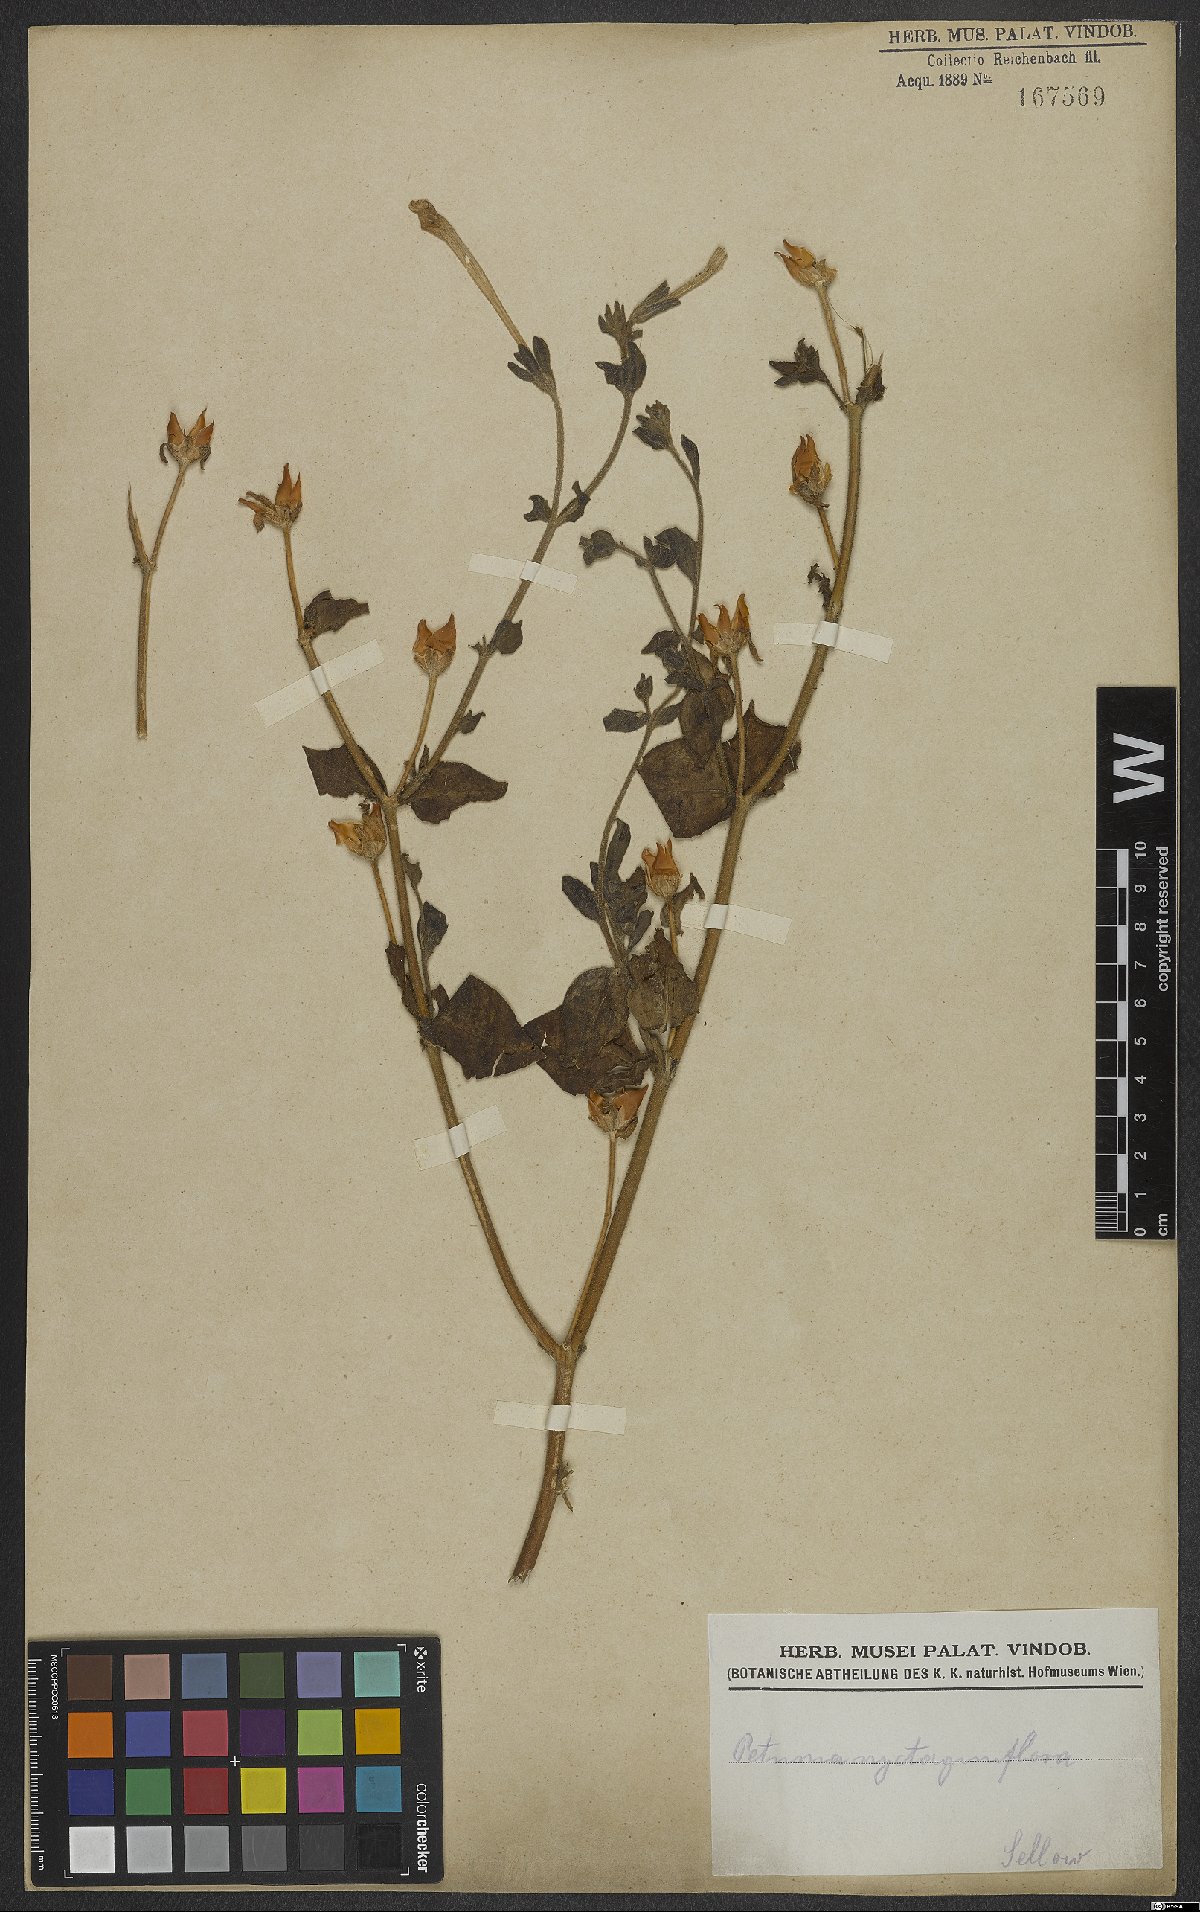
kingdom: Plantae
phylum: Tracheophyta
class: Magnoliopsida
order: Solanales
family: Solanaceae
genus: Petunia
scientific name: Petunia axillaris
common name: Large white petunia
